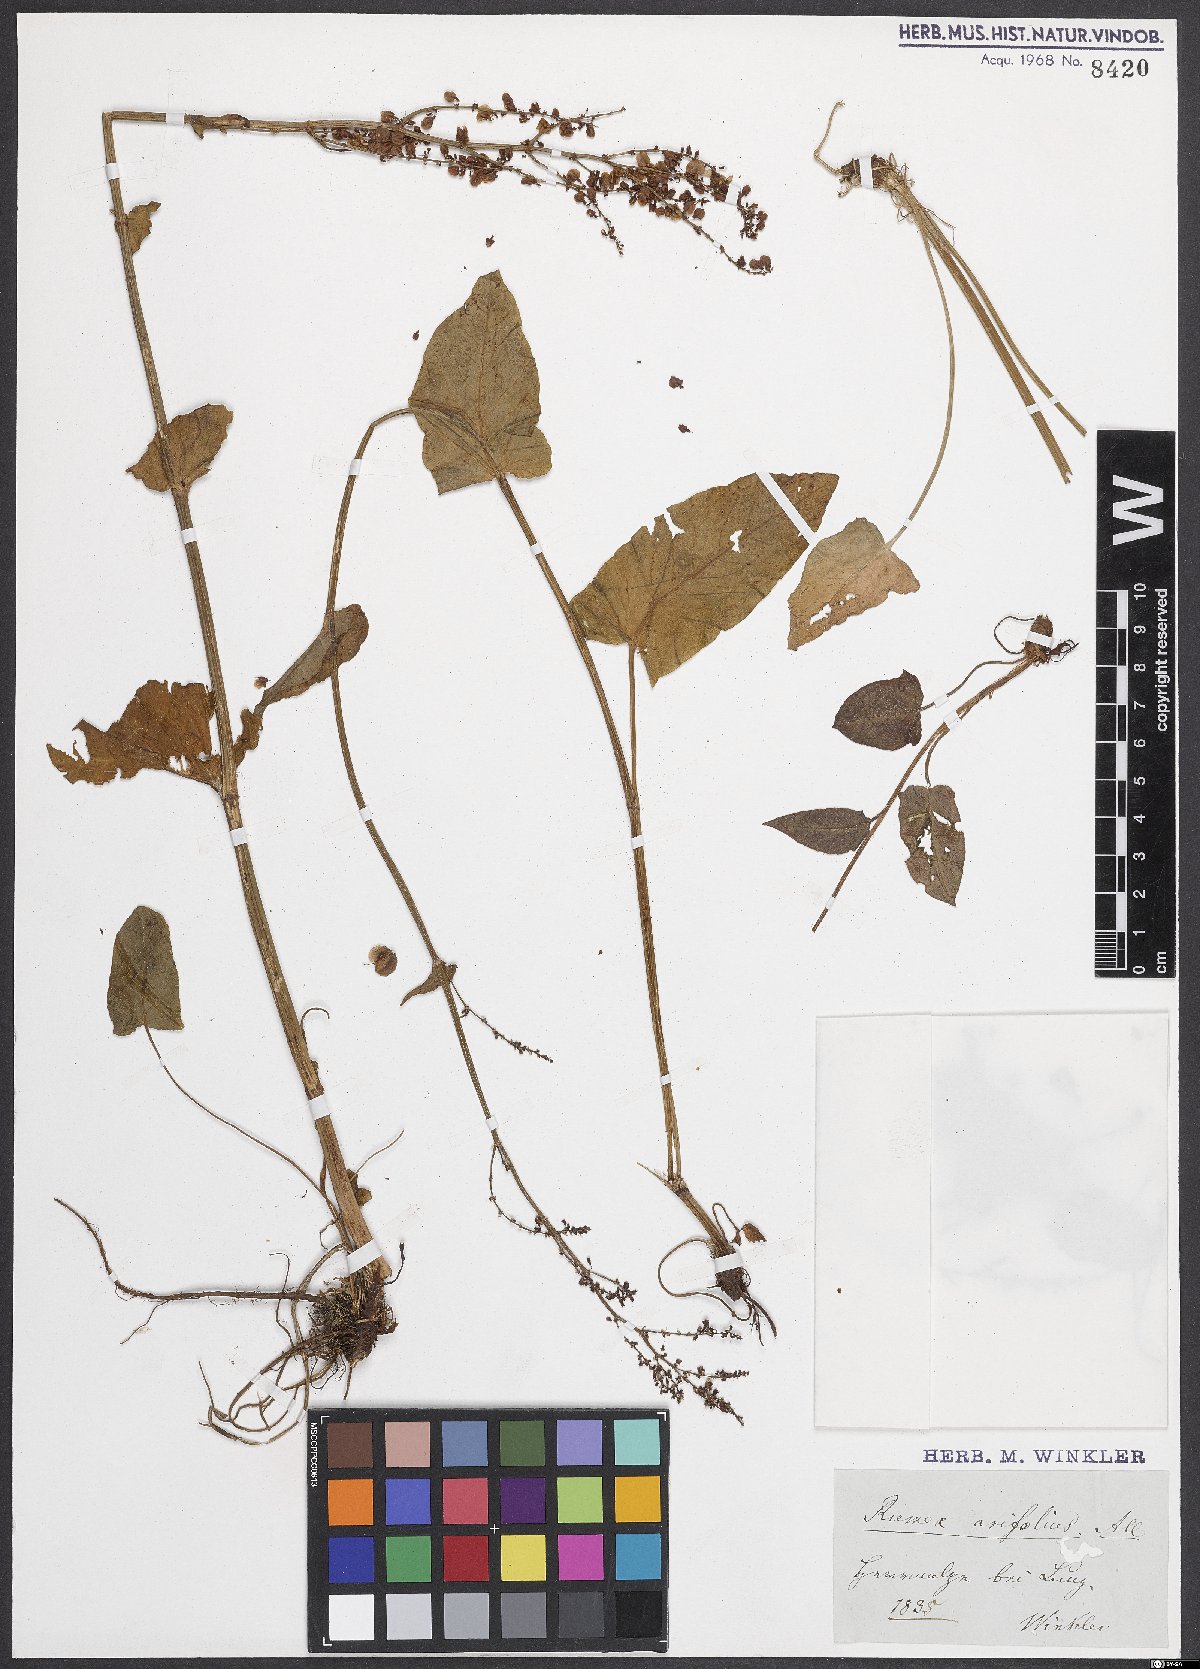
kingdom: Plantae
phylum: Tracheophyta
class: Magnoliopsida
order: Caryophyllales
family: Polygonaceae
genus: Rumex
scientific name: Rumex arifolius
